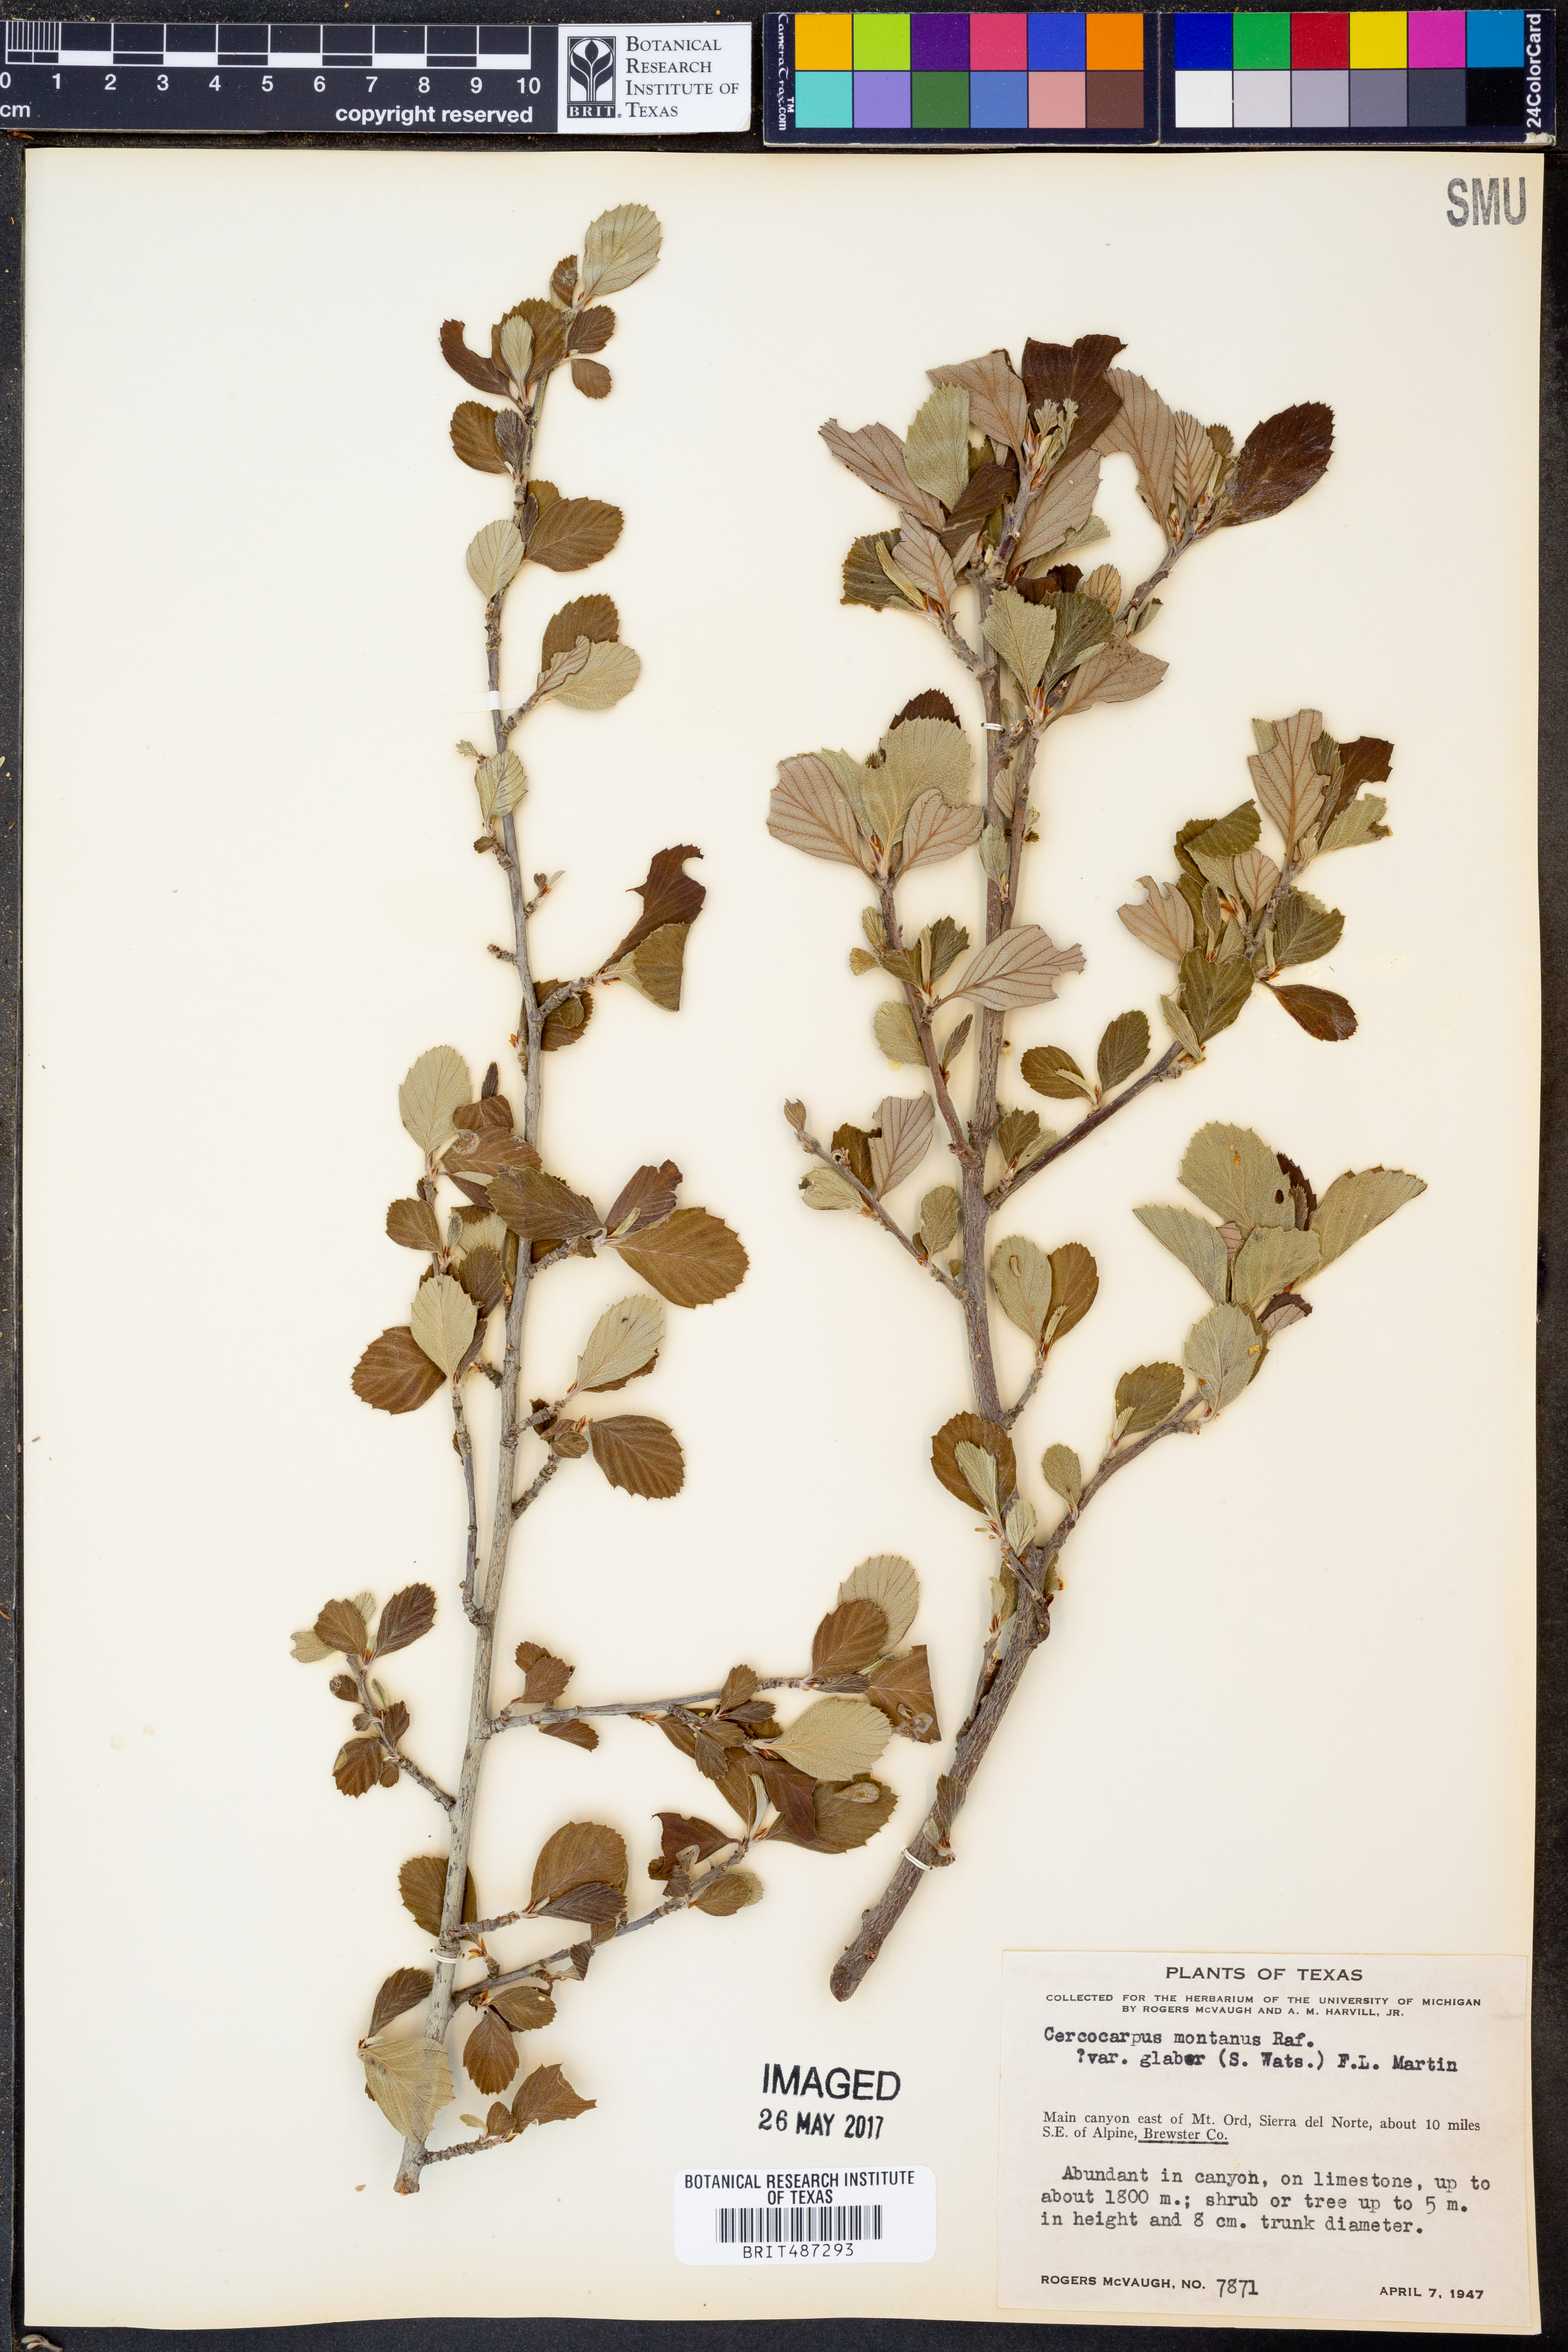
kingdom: Plantae
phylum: Tracheophyta
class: Magnoliopsida
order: Rosales
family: Rosaceae
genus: Cercocarpus
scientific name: Cercocarpus betuloides
